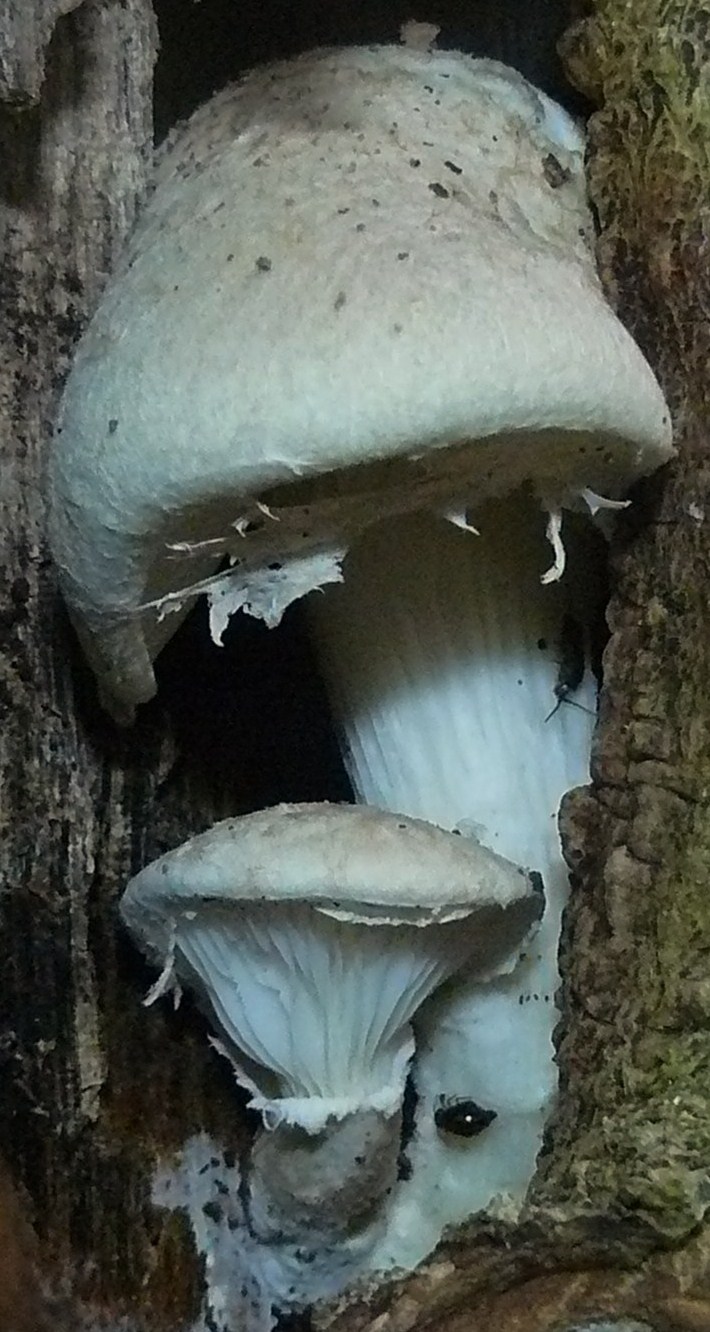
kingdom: Fungi
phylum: Basidiomycota
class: Agaricomycetes
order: Agaricales
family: Pleurotaceae
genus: Pleurotus
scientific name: Pleurotus dryinus
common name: korkagtig østershat
